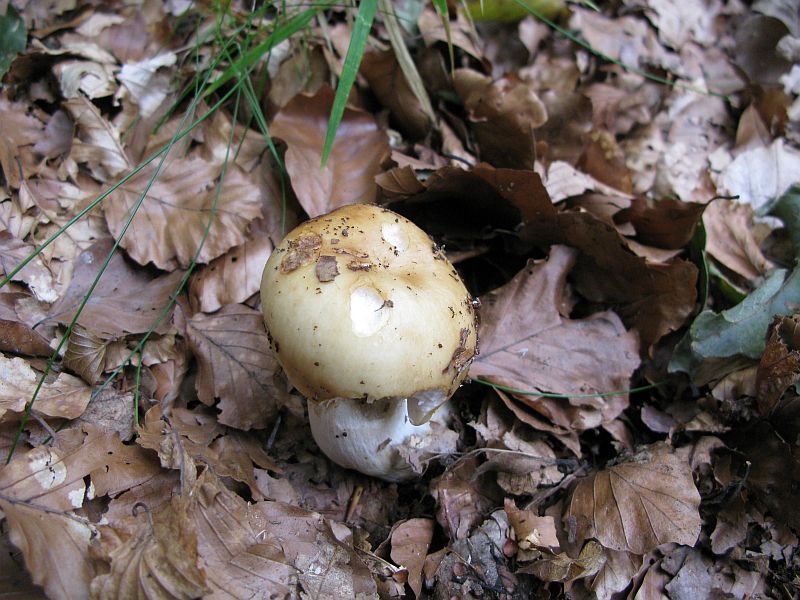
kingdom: Fungi
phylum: Basidiomycota
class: Agaricomycetes
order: Russulales
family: Russulaceae
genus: Russula
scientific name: Russula grata
